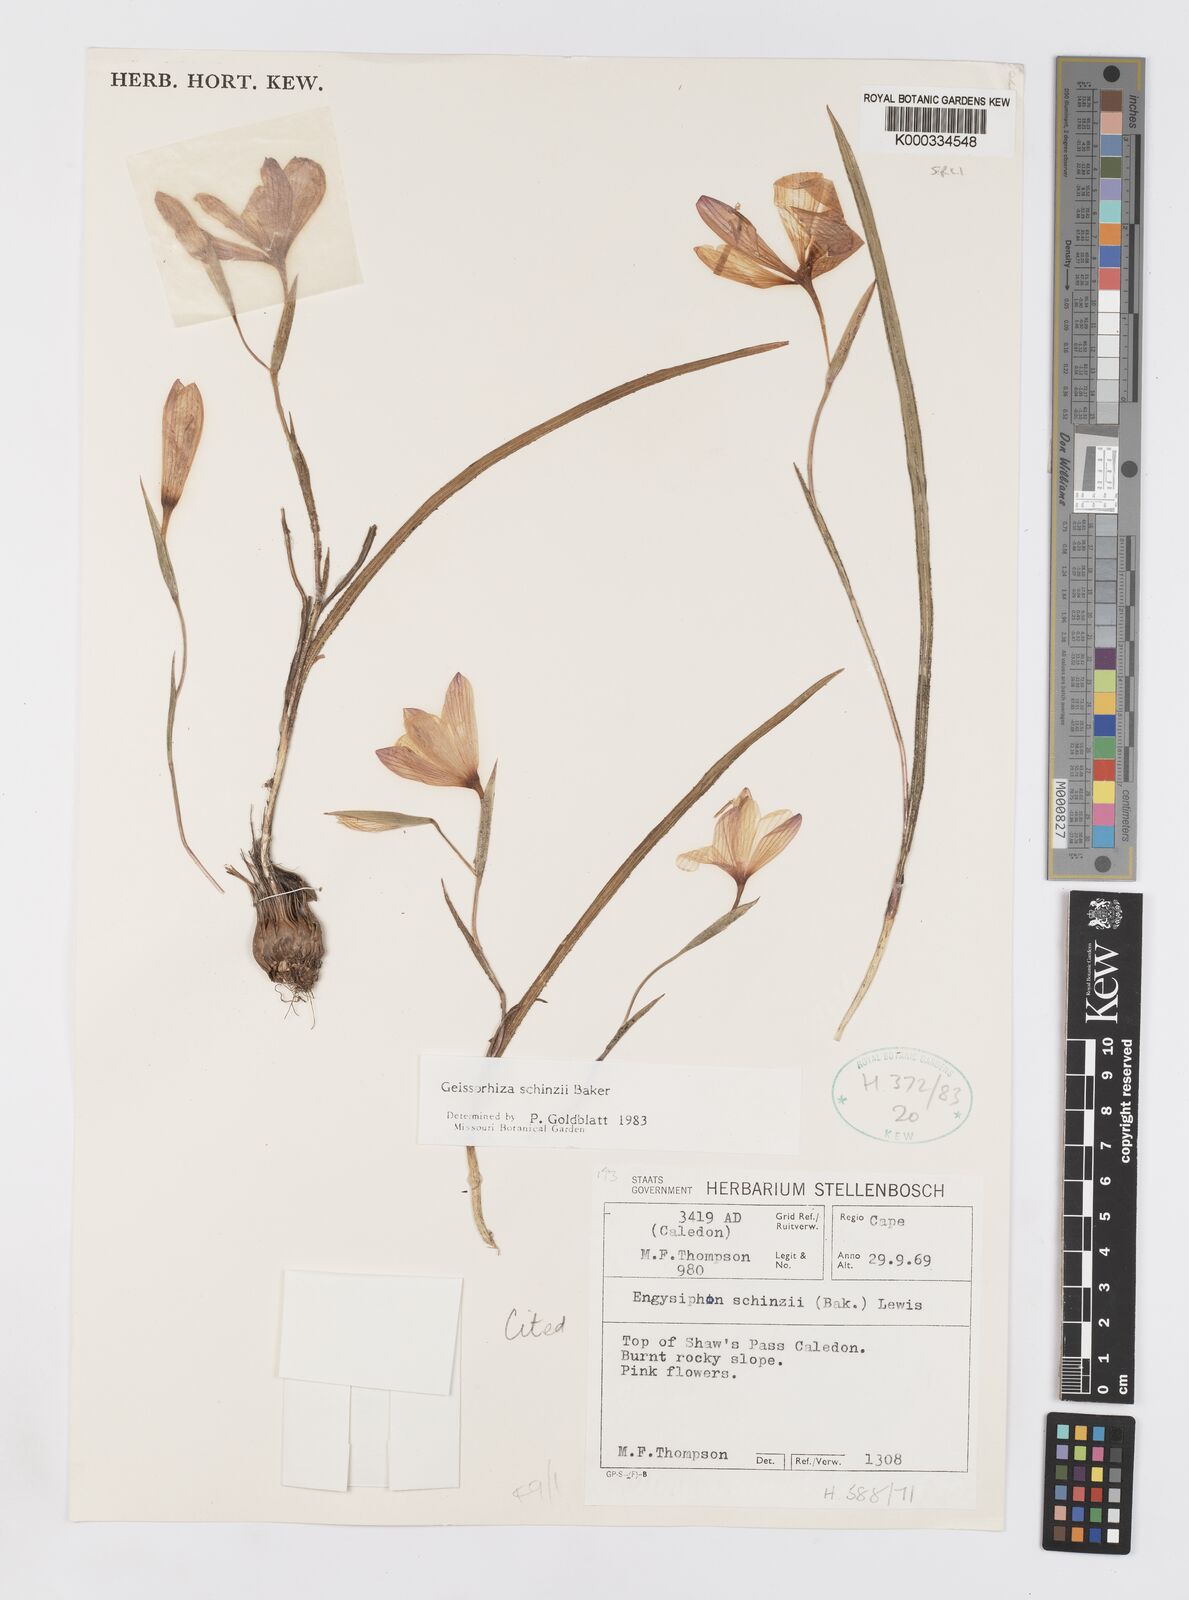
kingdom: Plantae
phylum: Tracheophyta
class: Liliopsida
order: Asparagales
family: Iridaceae
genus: Geissorhiza
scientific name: Geissorhiza schinzii
